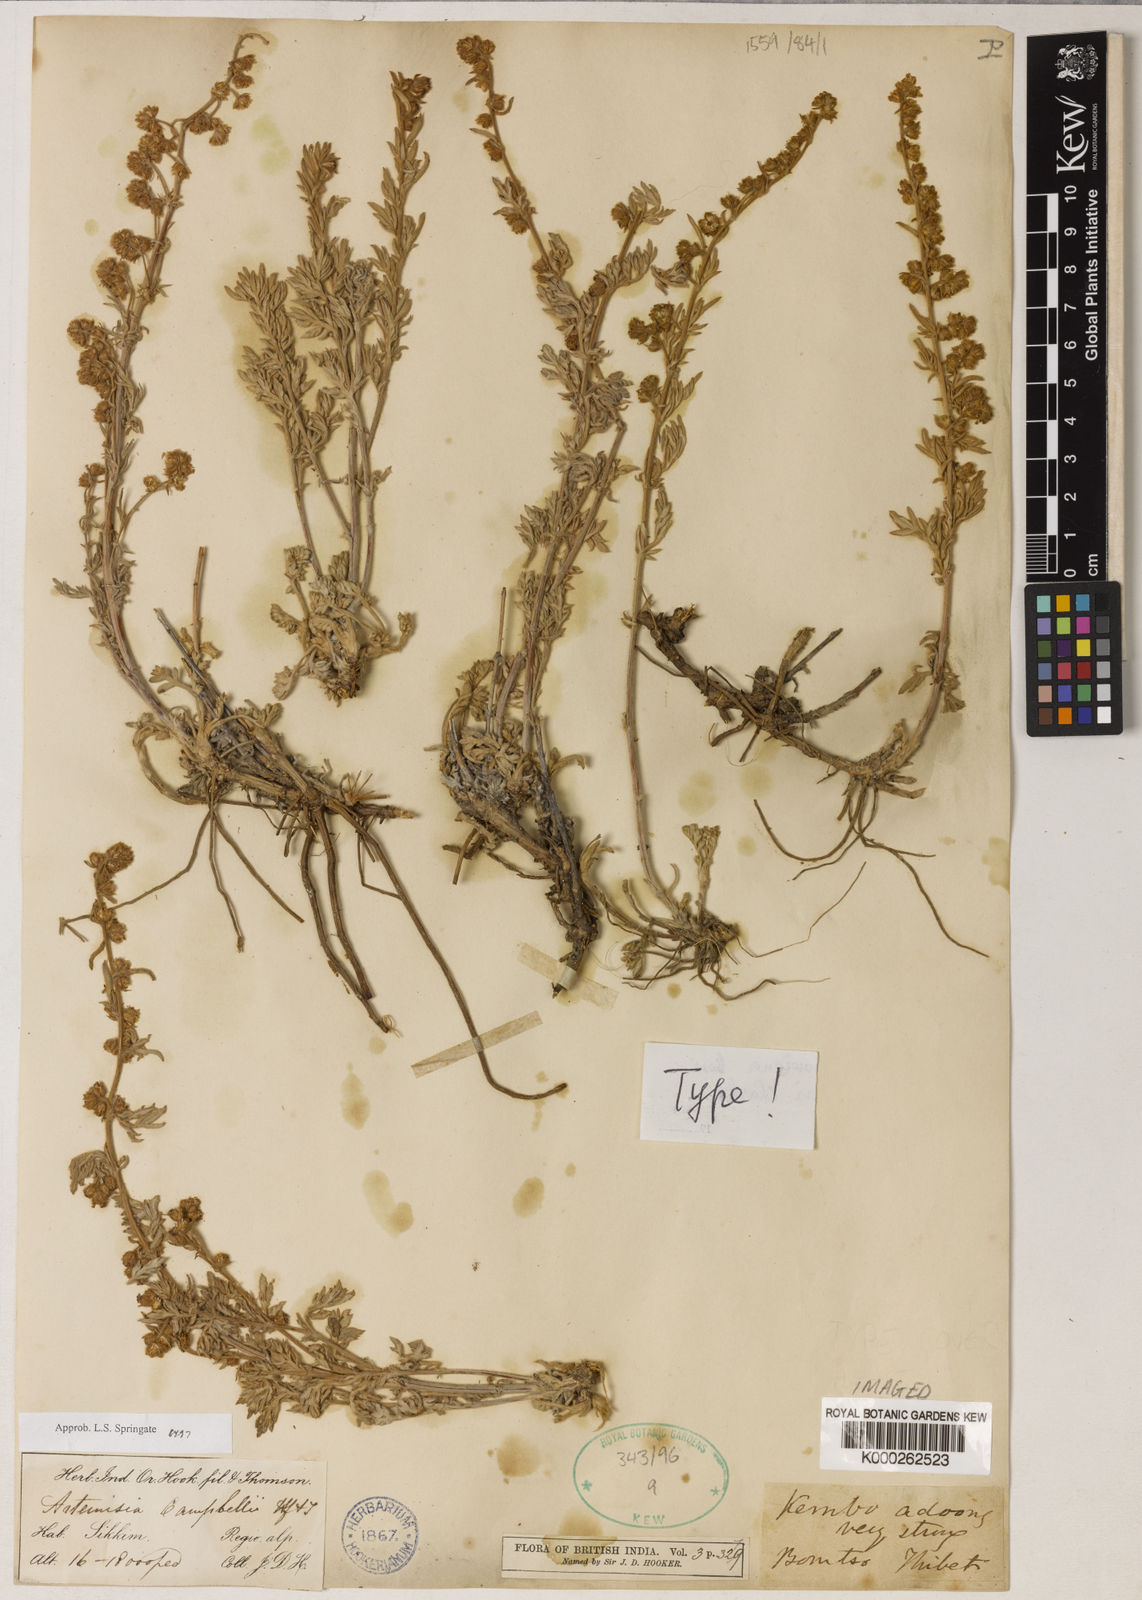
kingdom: Plantae
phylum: Tracheophyta
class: Magnoliopsida
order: Asterales
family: Asteraceae
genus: Artemisia
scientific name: Artemisia campbellii
